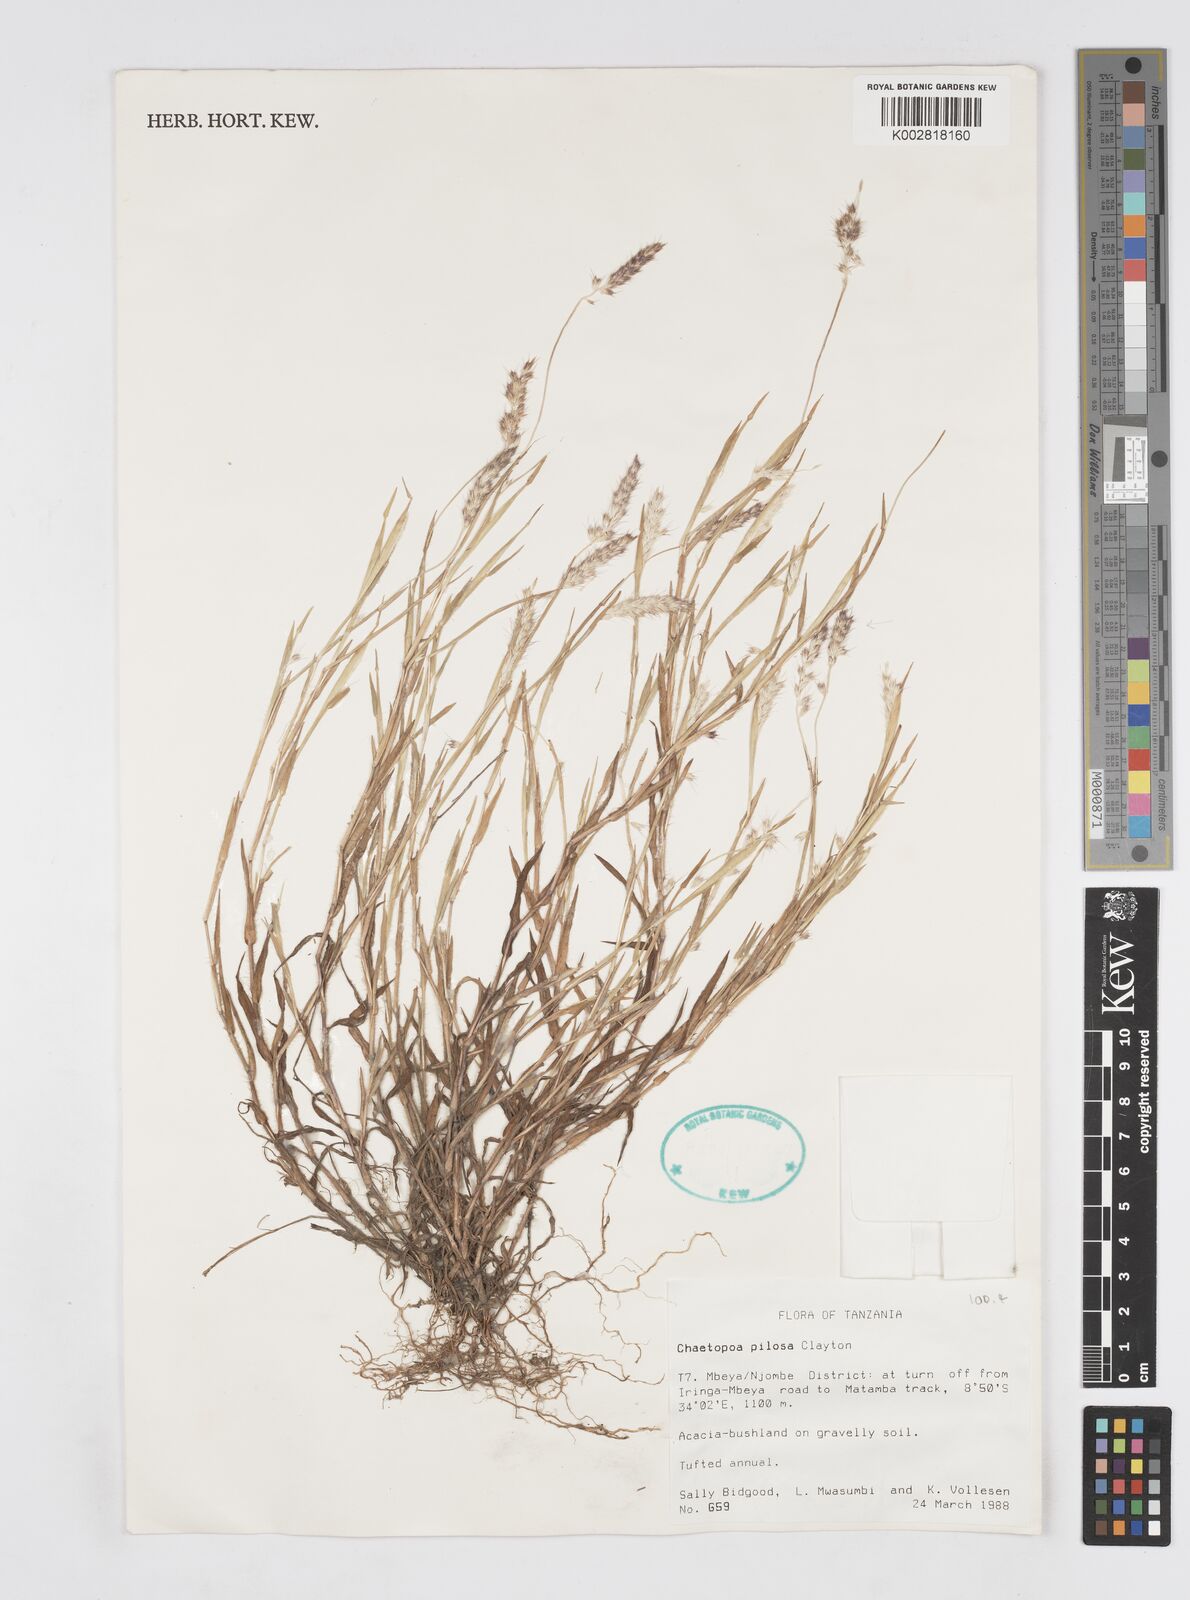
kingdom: Plantae
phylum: Tracheophyta
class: Liliopsida
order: Poales
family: Poaceae
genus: Chaetopoa
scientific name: Chaetopoa pilosa
